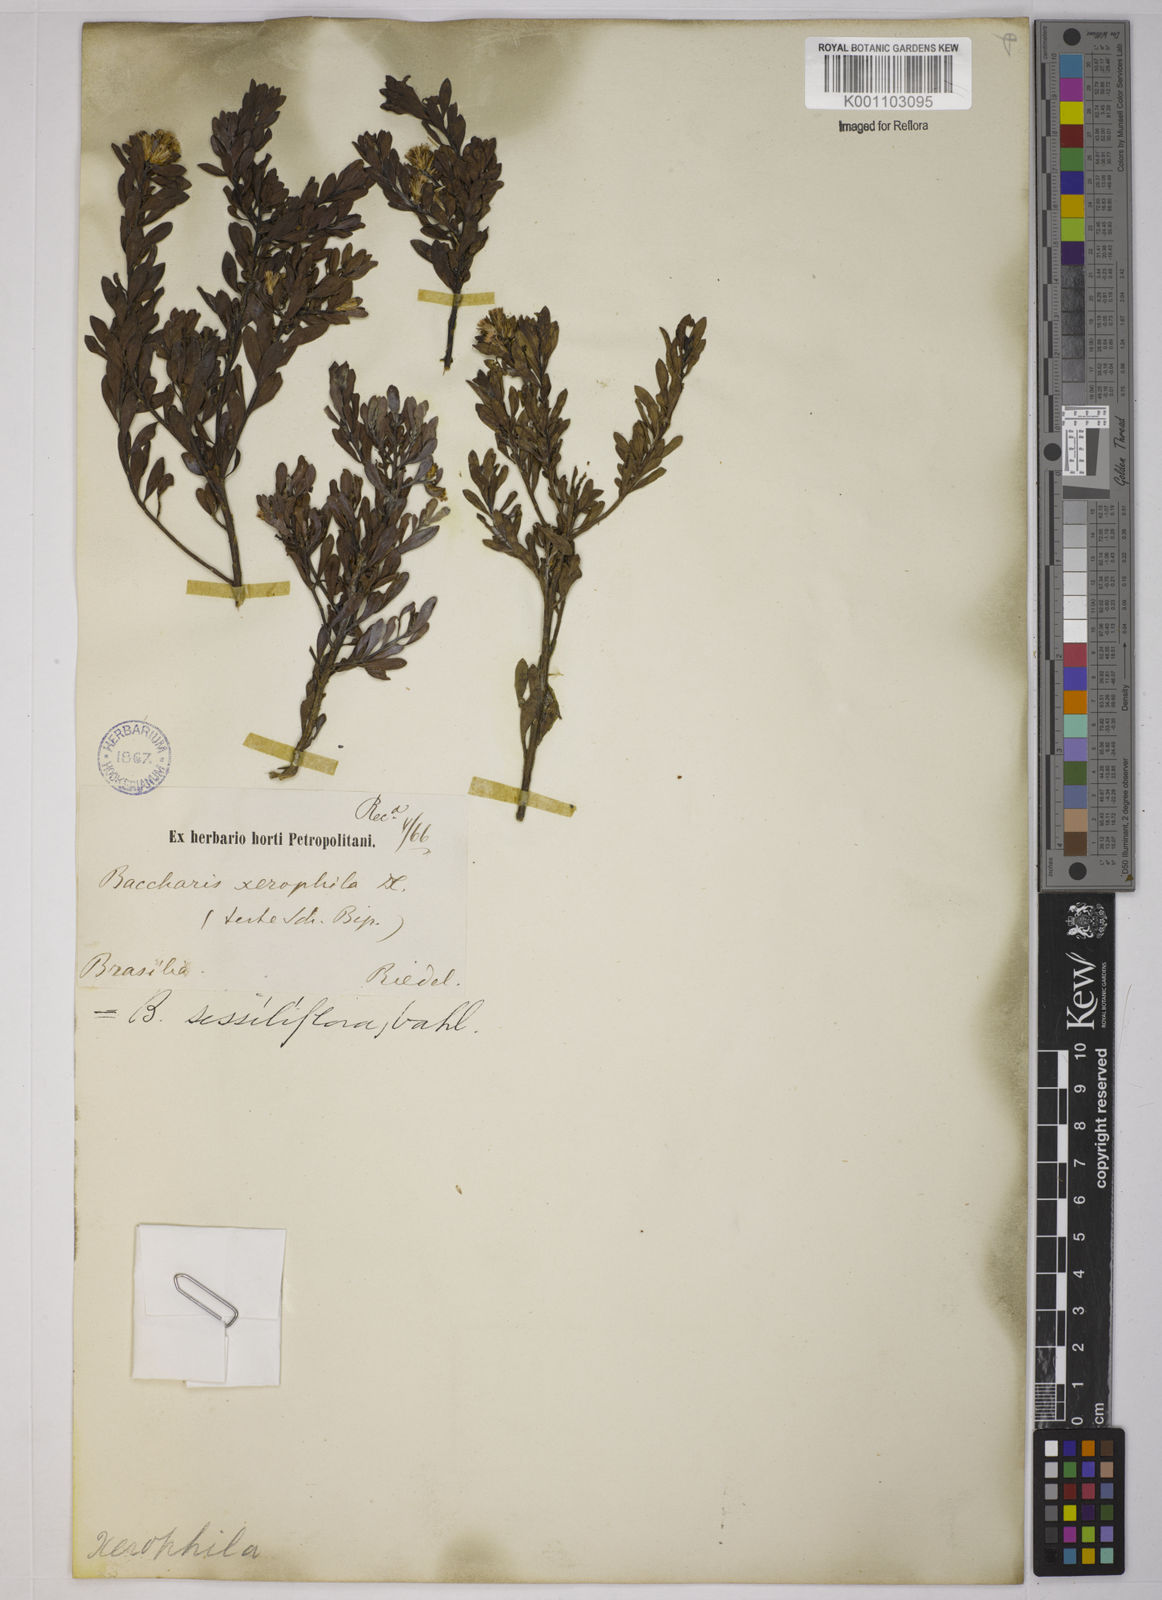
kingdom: Plantae
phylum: Tracheophyta
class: Magnoliopsida
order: Asterales
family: Asteraceae
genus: Baccharis
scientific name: Baccharis sessiliflora
